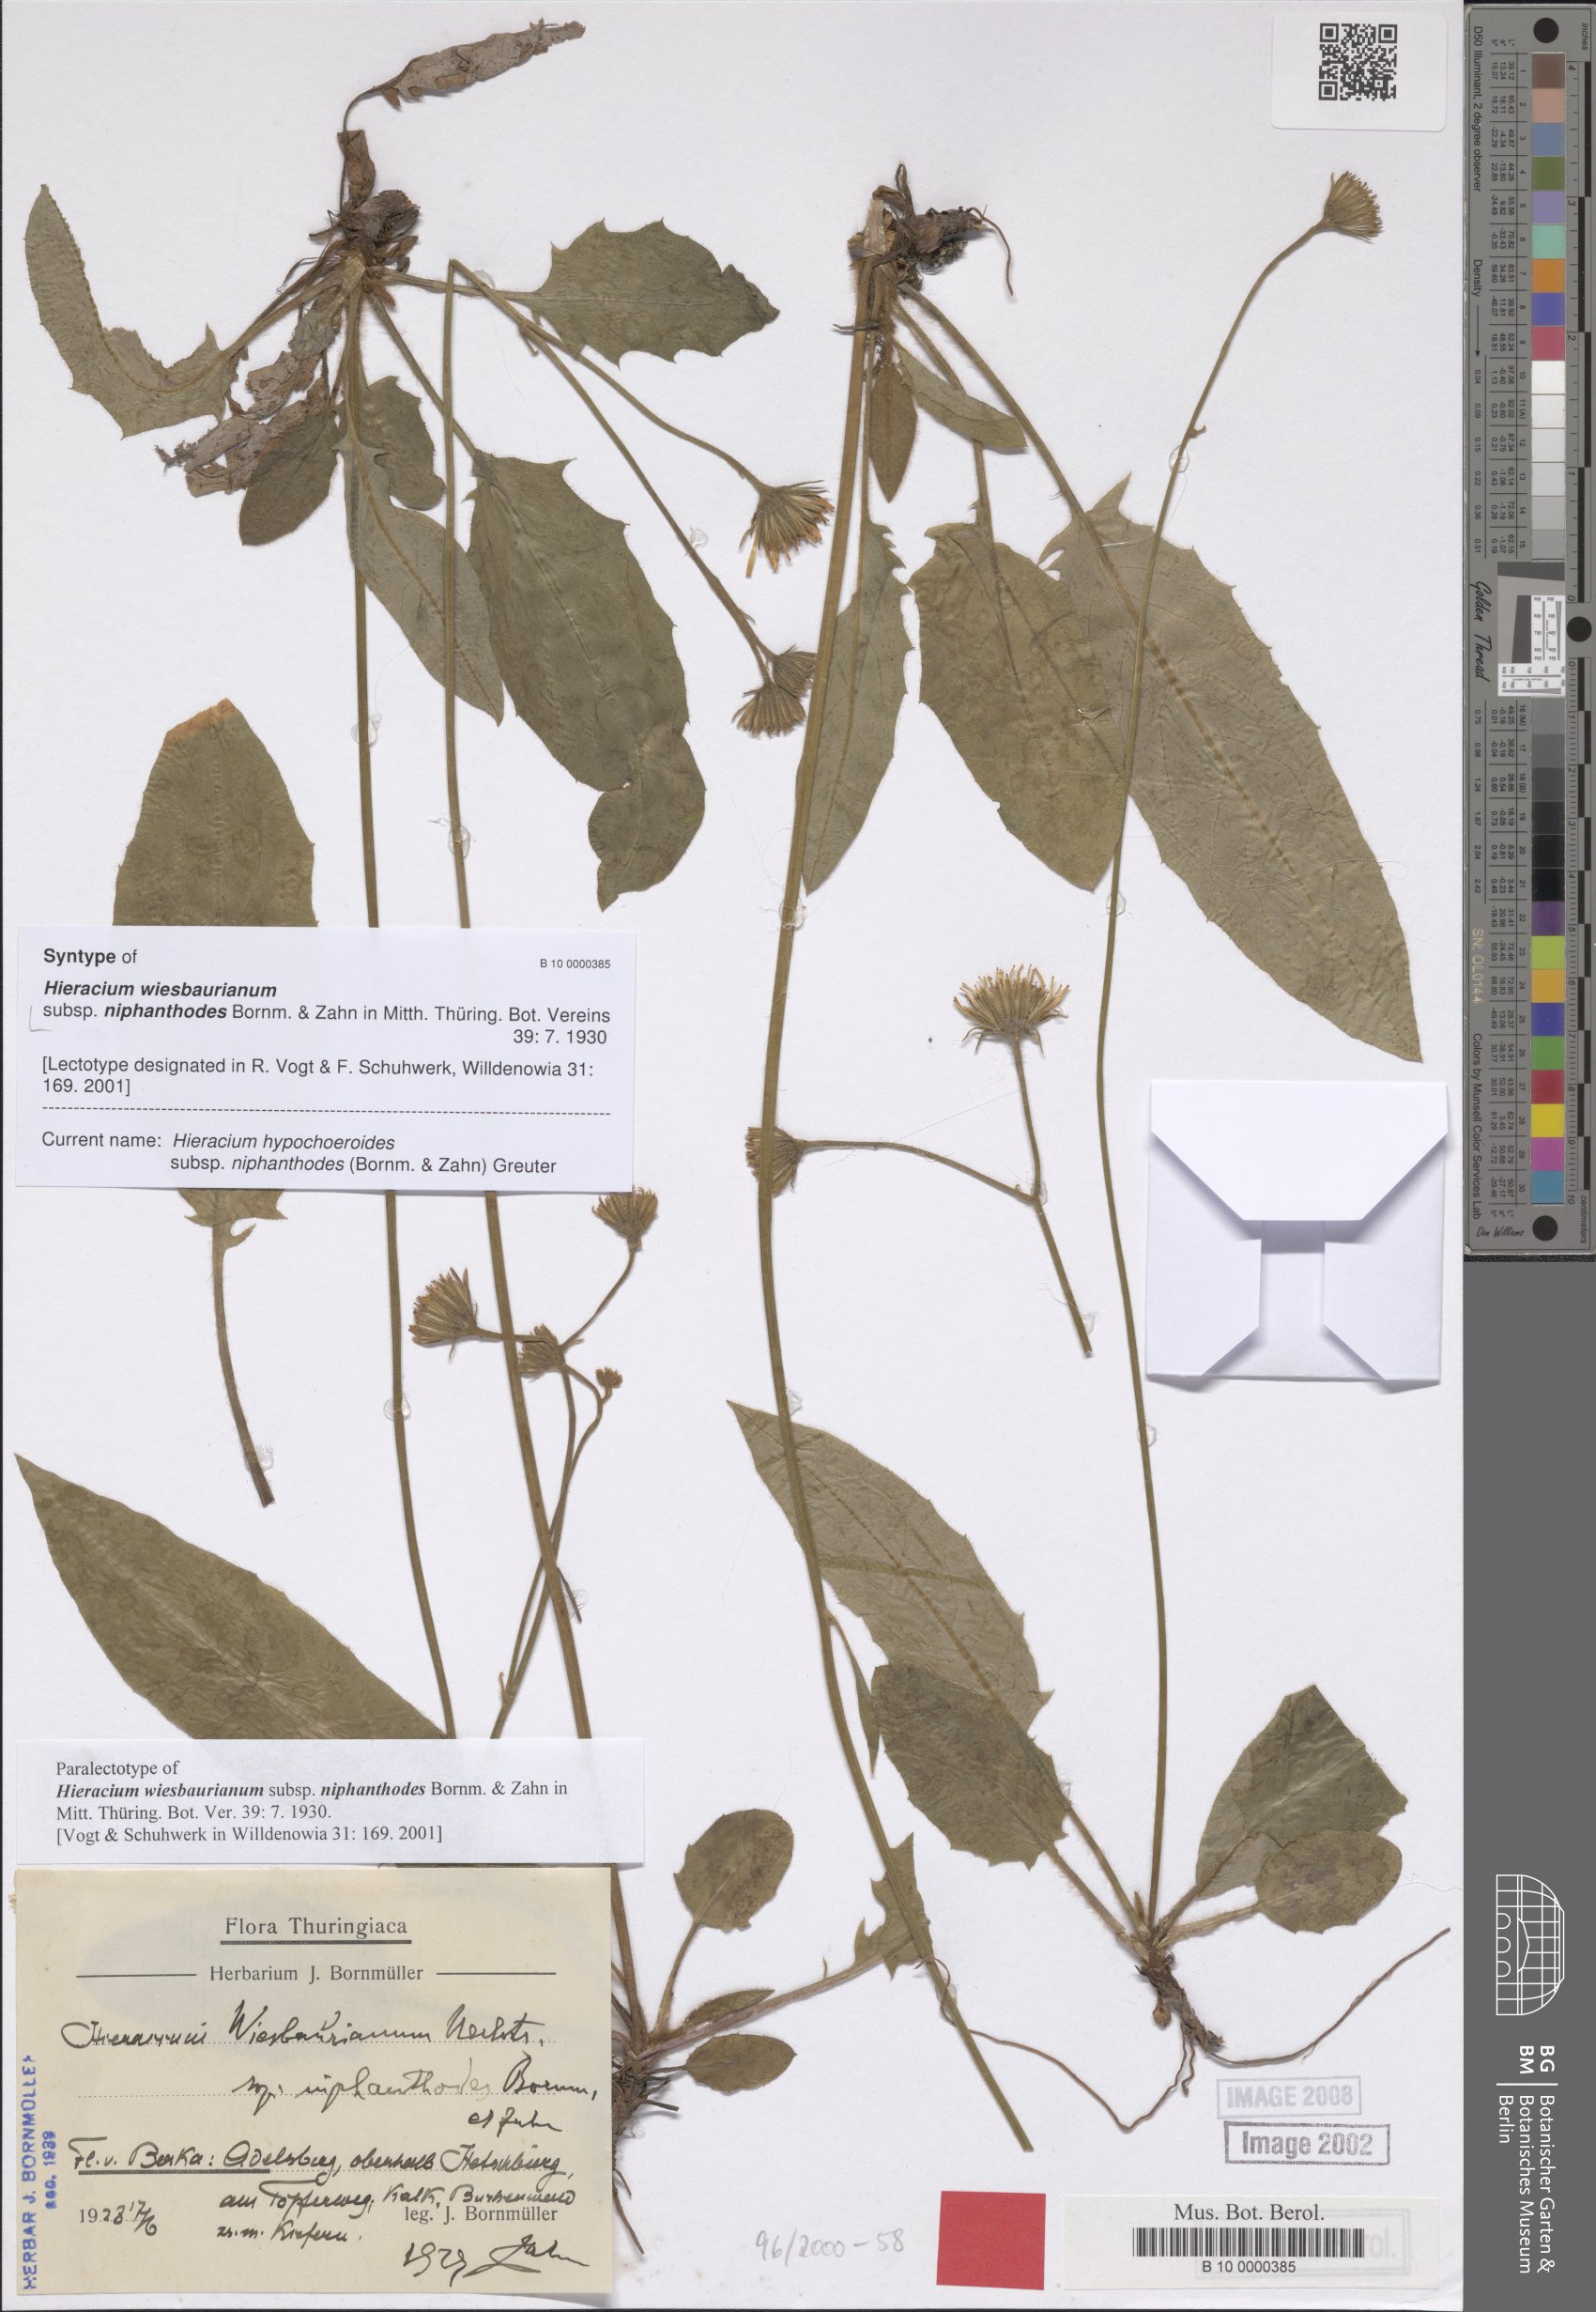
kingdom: Plantae
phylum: Tracheophyta
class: Magnoliopsida
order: Asterales
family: Asteraceae
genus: Hieracium
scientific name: Hieracium hypochoeroides
